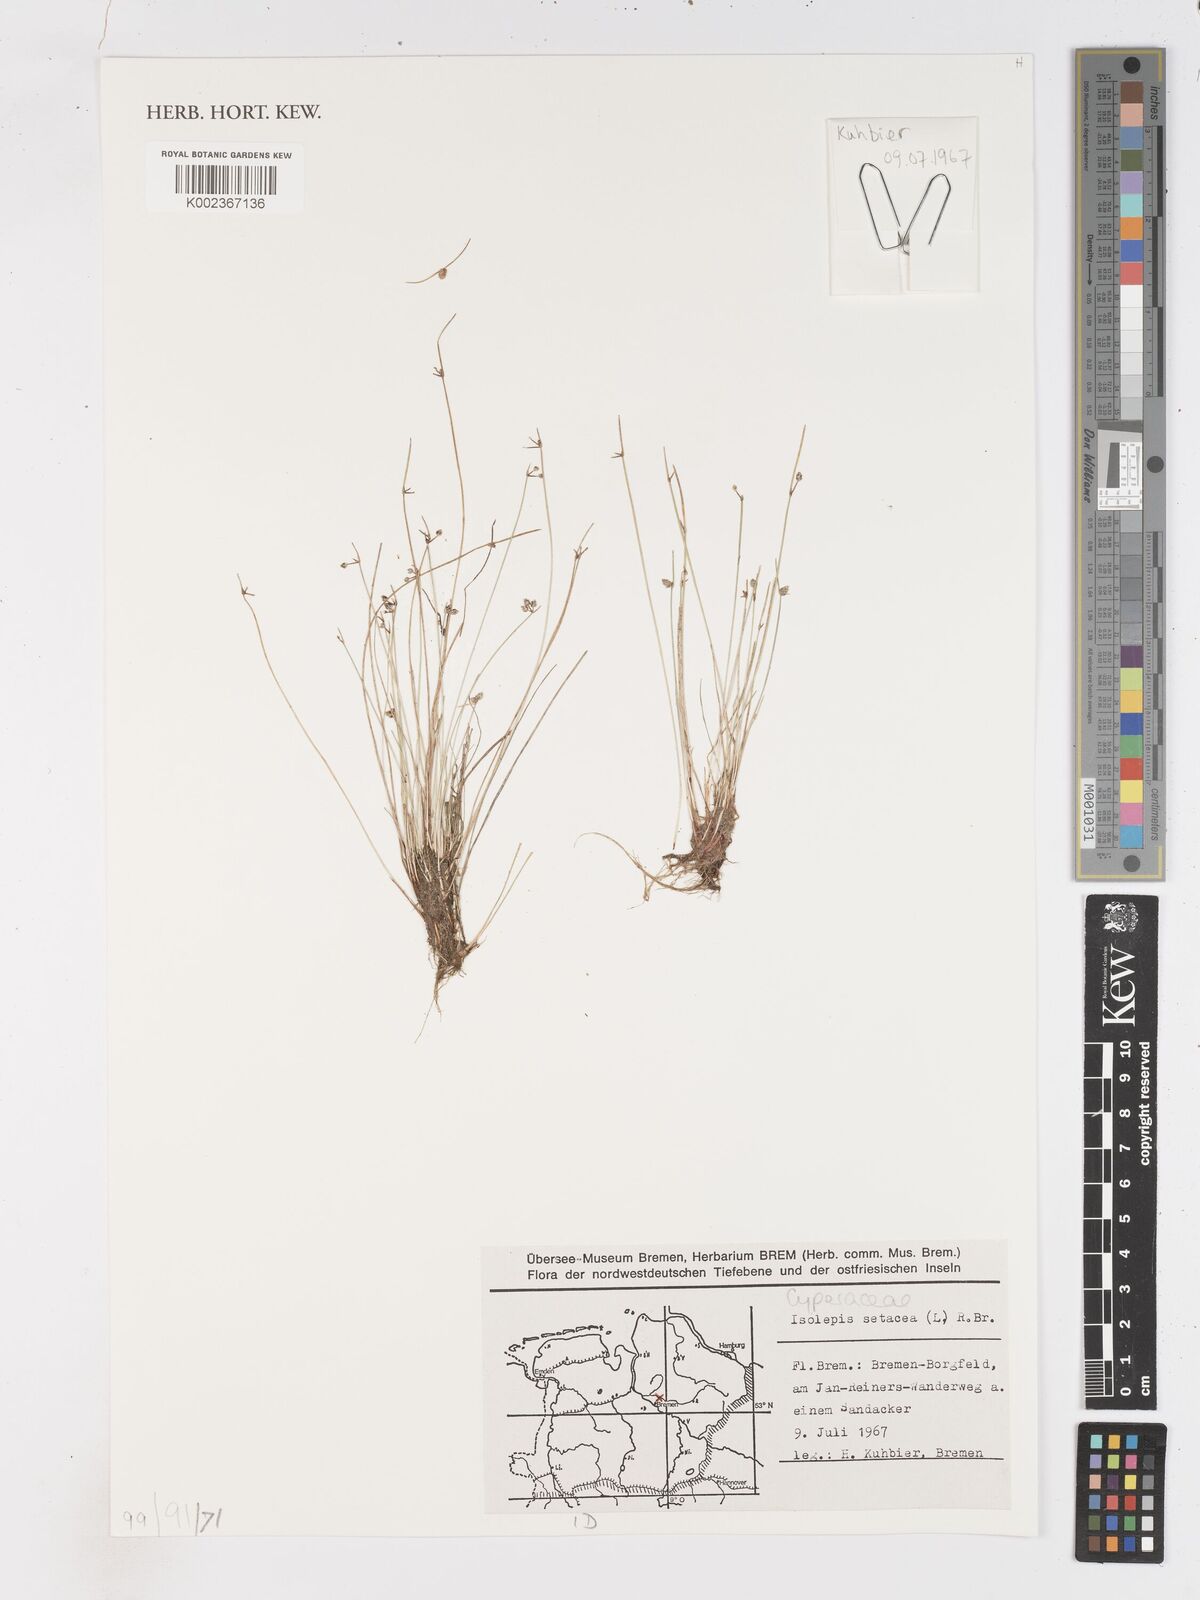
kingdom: Plantae
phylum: Tracheophyta
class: Liliopsida
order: Poales
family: Cyperaceae
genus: Isolepis
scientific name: Isolepis setacea
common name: Bristle club-rush
